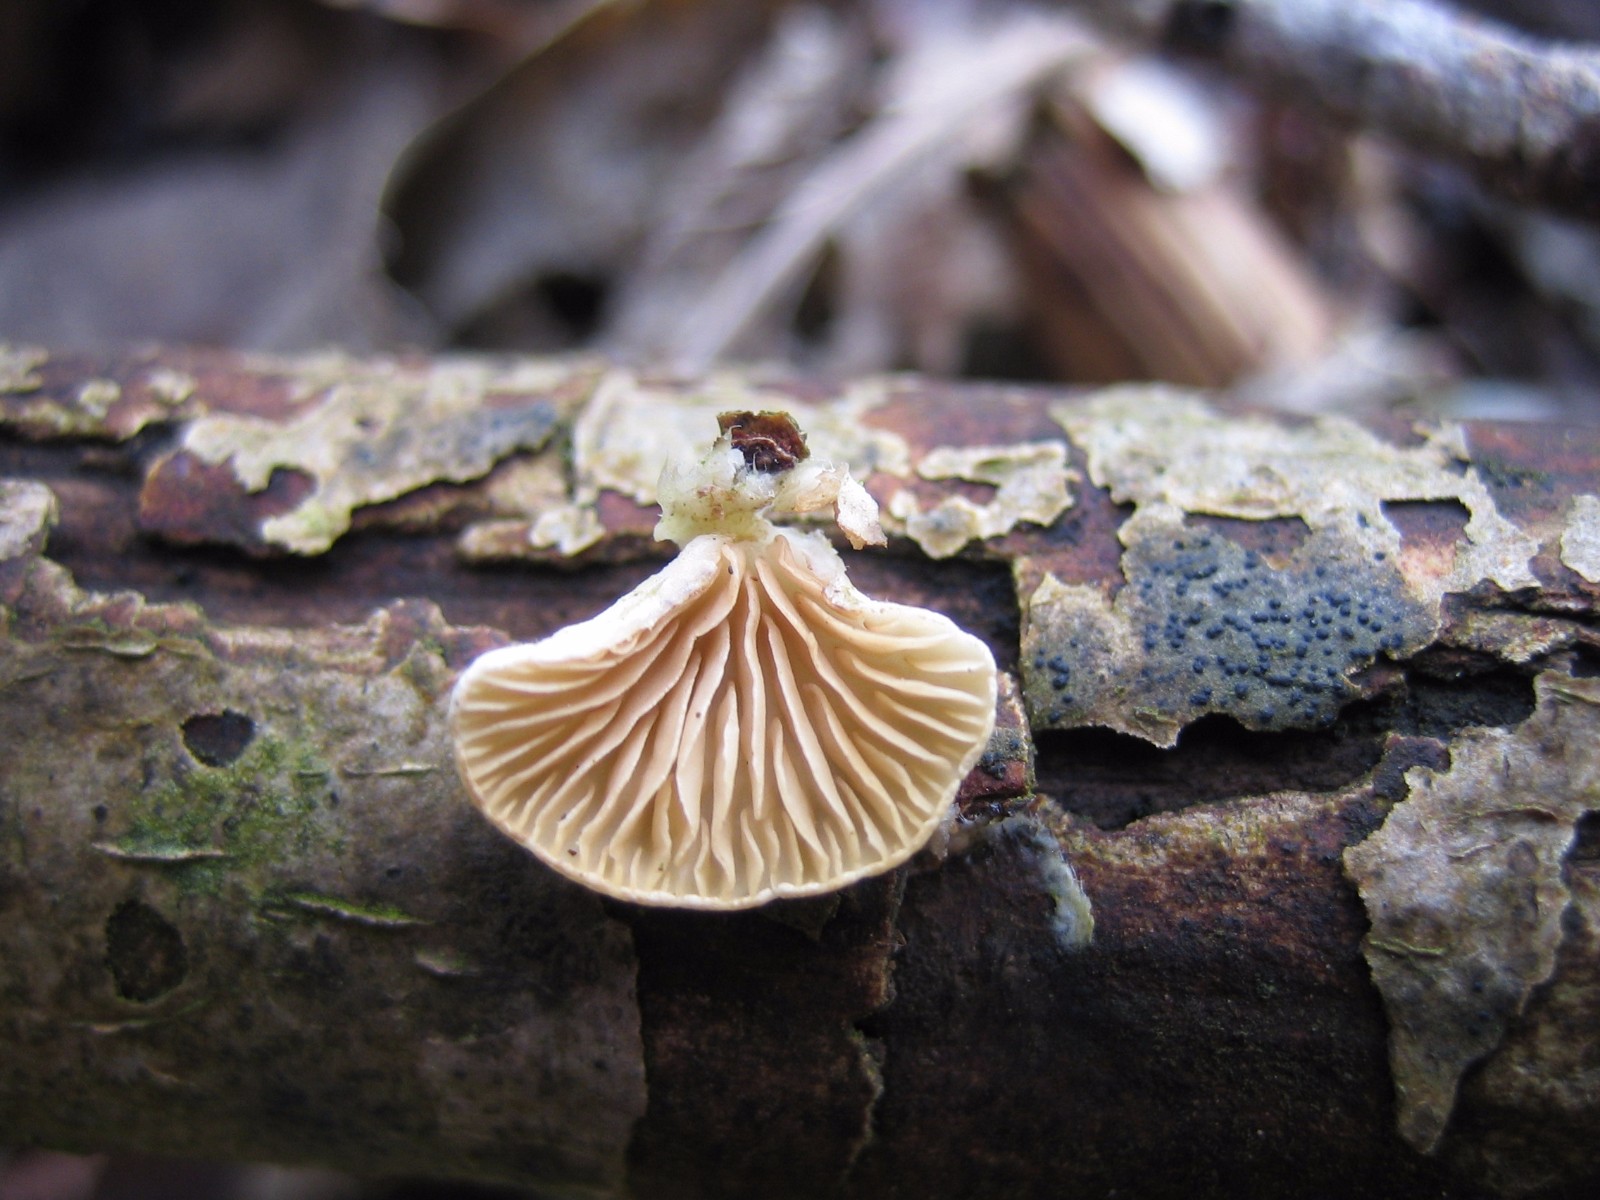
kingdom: Fungi
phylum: Basidiomycota
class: Agaricomycetes
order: Agaricales
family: Crepidotaceae
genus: Crepidotus
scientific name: Crepidotus
